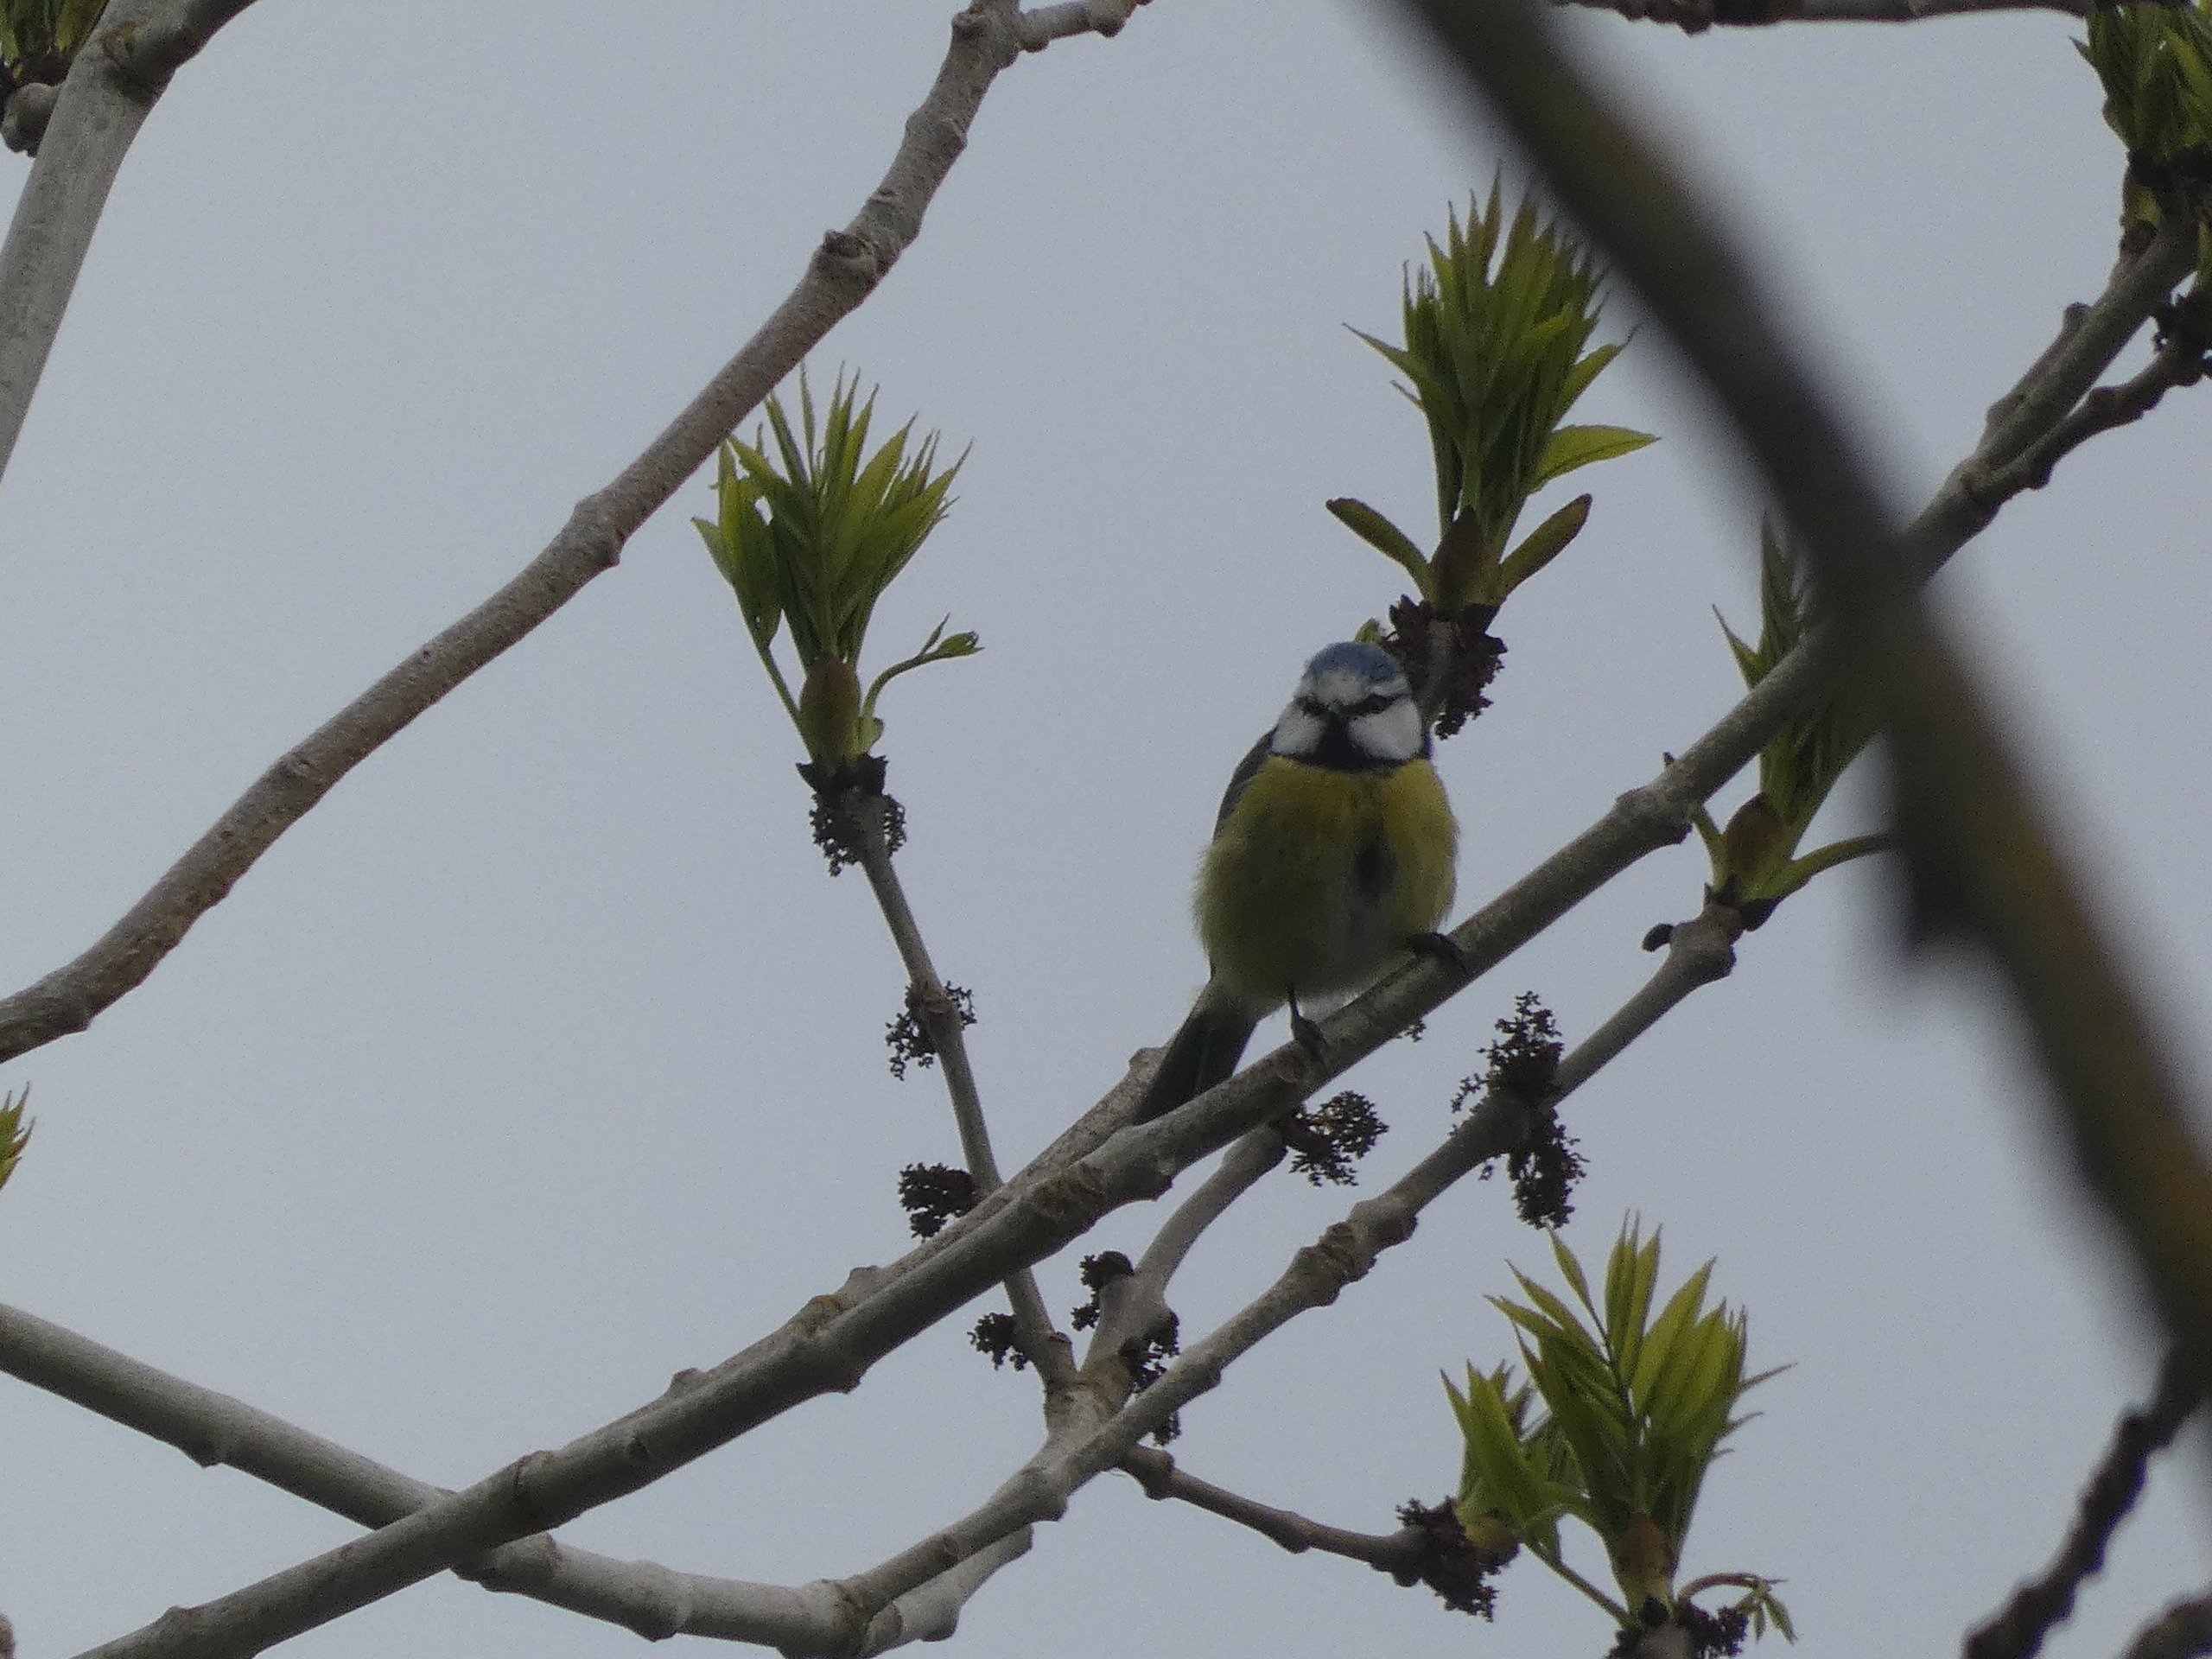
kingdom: Animalia
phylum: Chordata
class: Aves
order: Passeriformes
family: Paridae
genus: Cyanistes
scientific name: Cyanistes caeruleus
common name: Blåmejse
